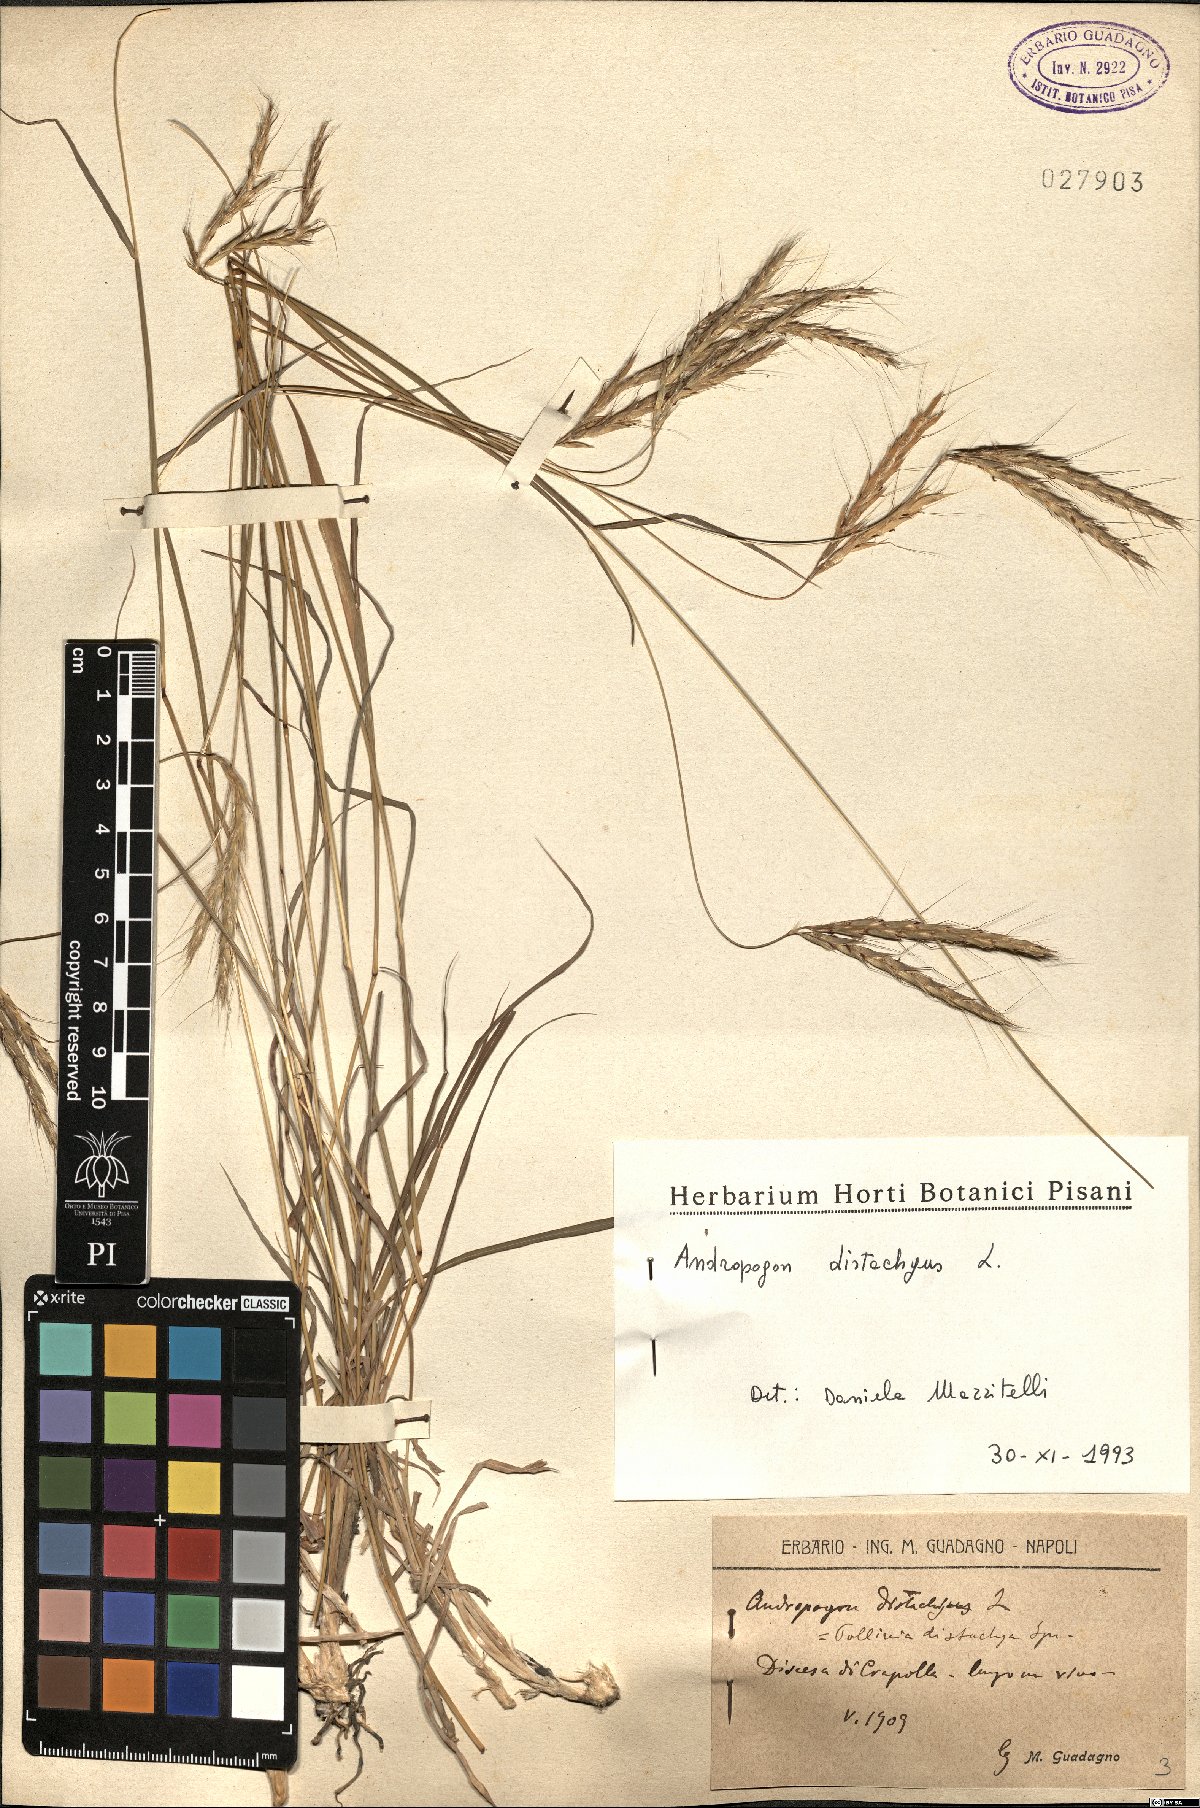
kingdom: Plantae
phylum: Tracheophyta
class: Liliopsida
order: Poales
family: Poaceae
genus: Andropogon
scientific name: Andropogon distachyos
